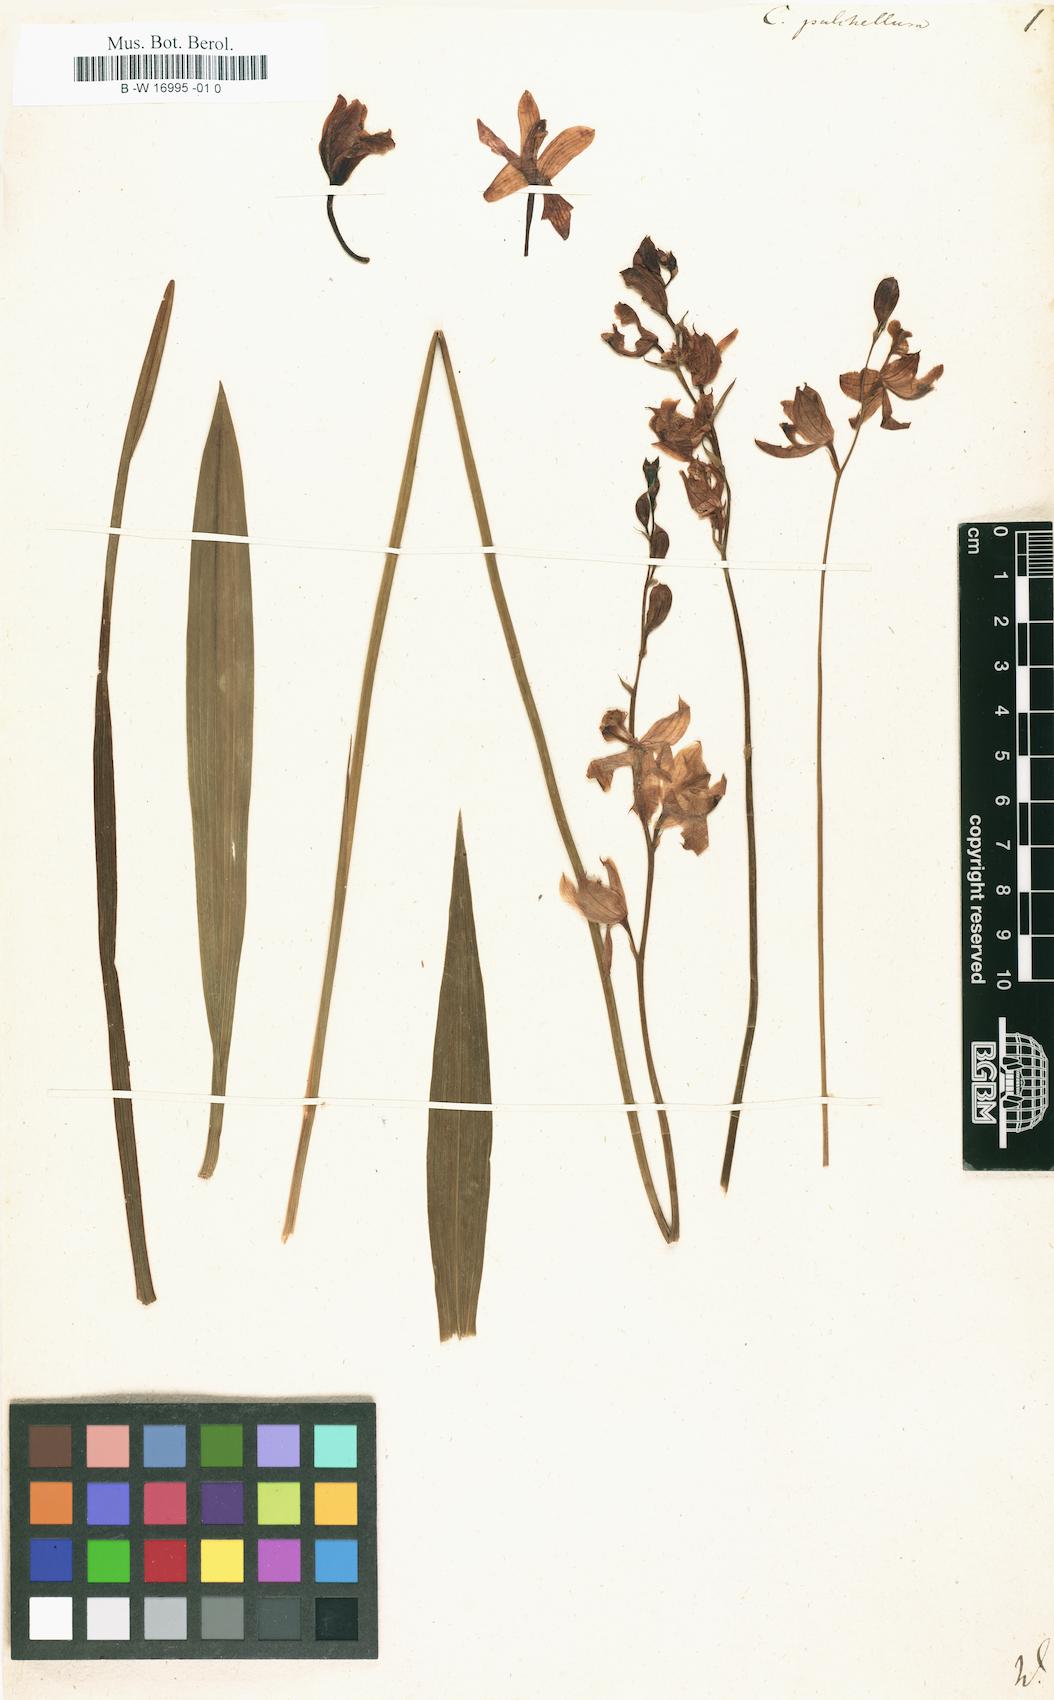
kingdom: Plantae
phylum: Tracheophyta
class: Liliopsida
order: Asparagales
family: Orchidaceae
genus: Calopogon
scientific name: Calopogon tuberosus
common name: Grass-pink
